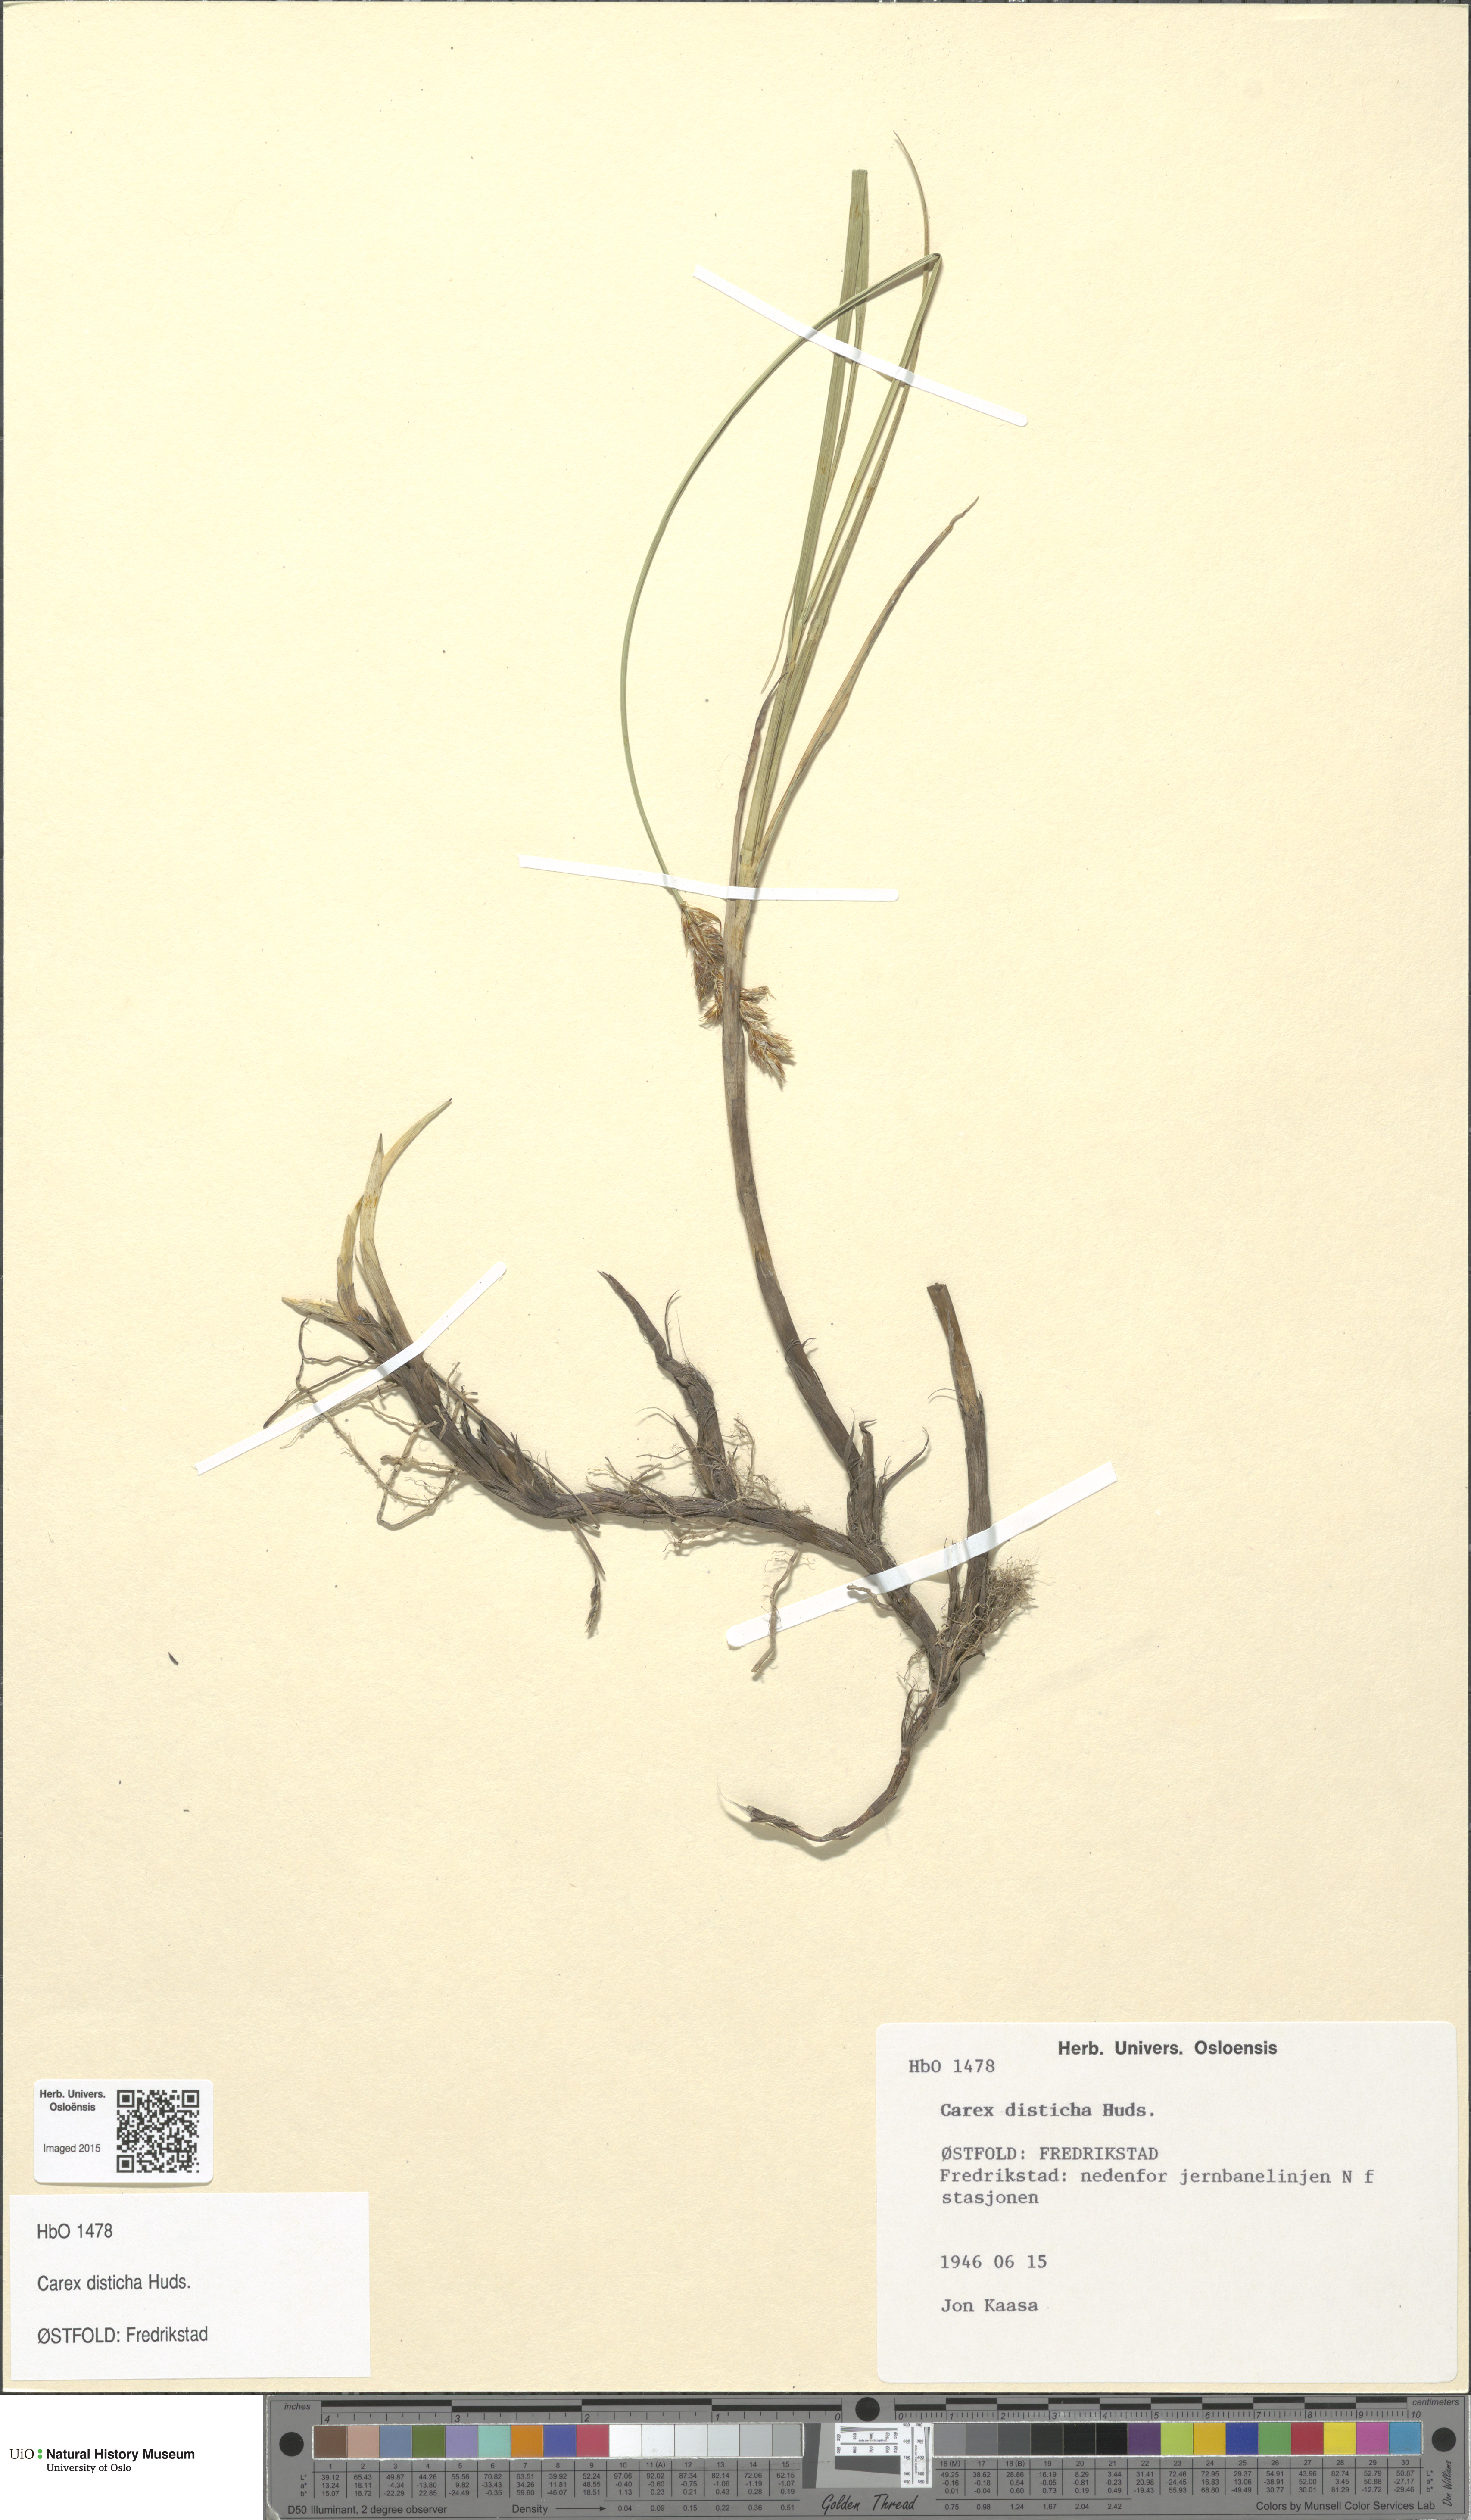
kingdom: Plantae
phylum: Tracheophyta
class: Liliopsida
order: Poales
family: Cyperaceae
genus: Carex
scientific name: Carex disticha
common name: Brown sedge
